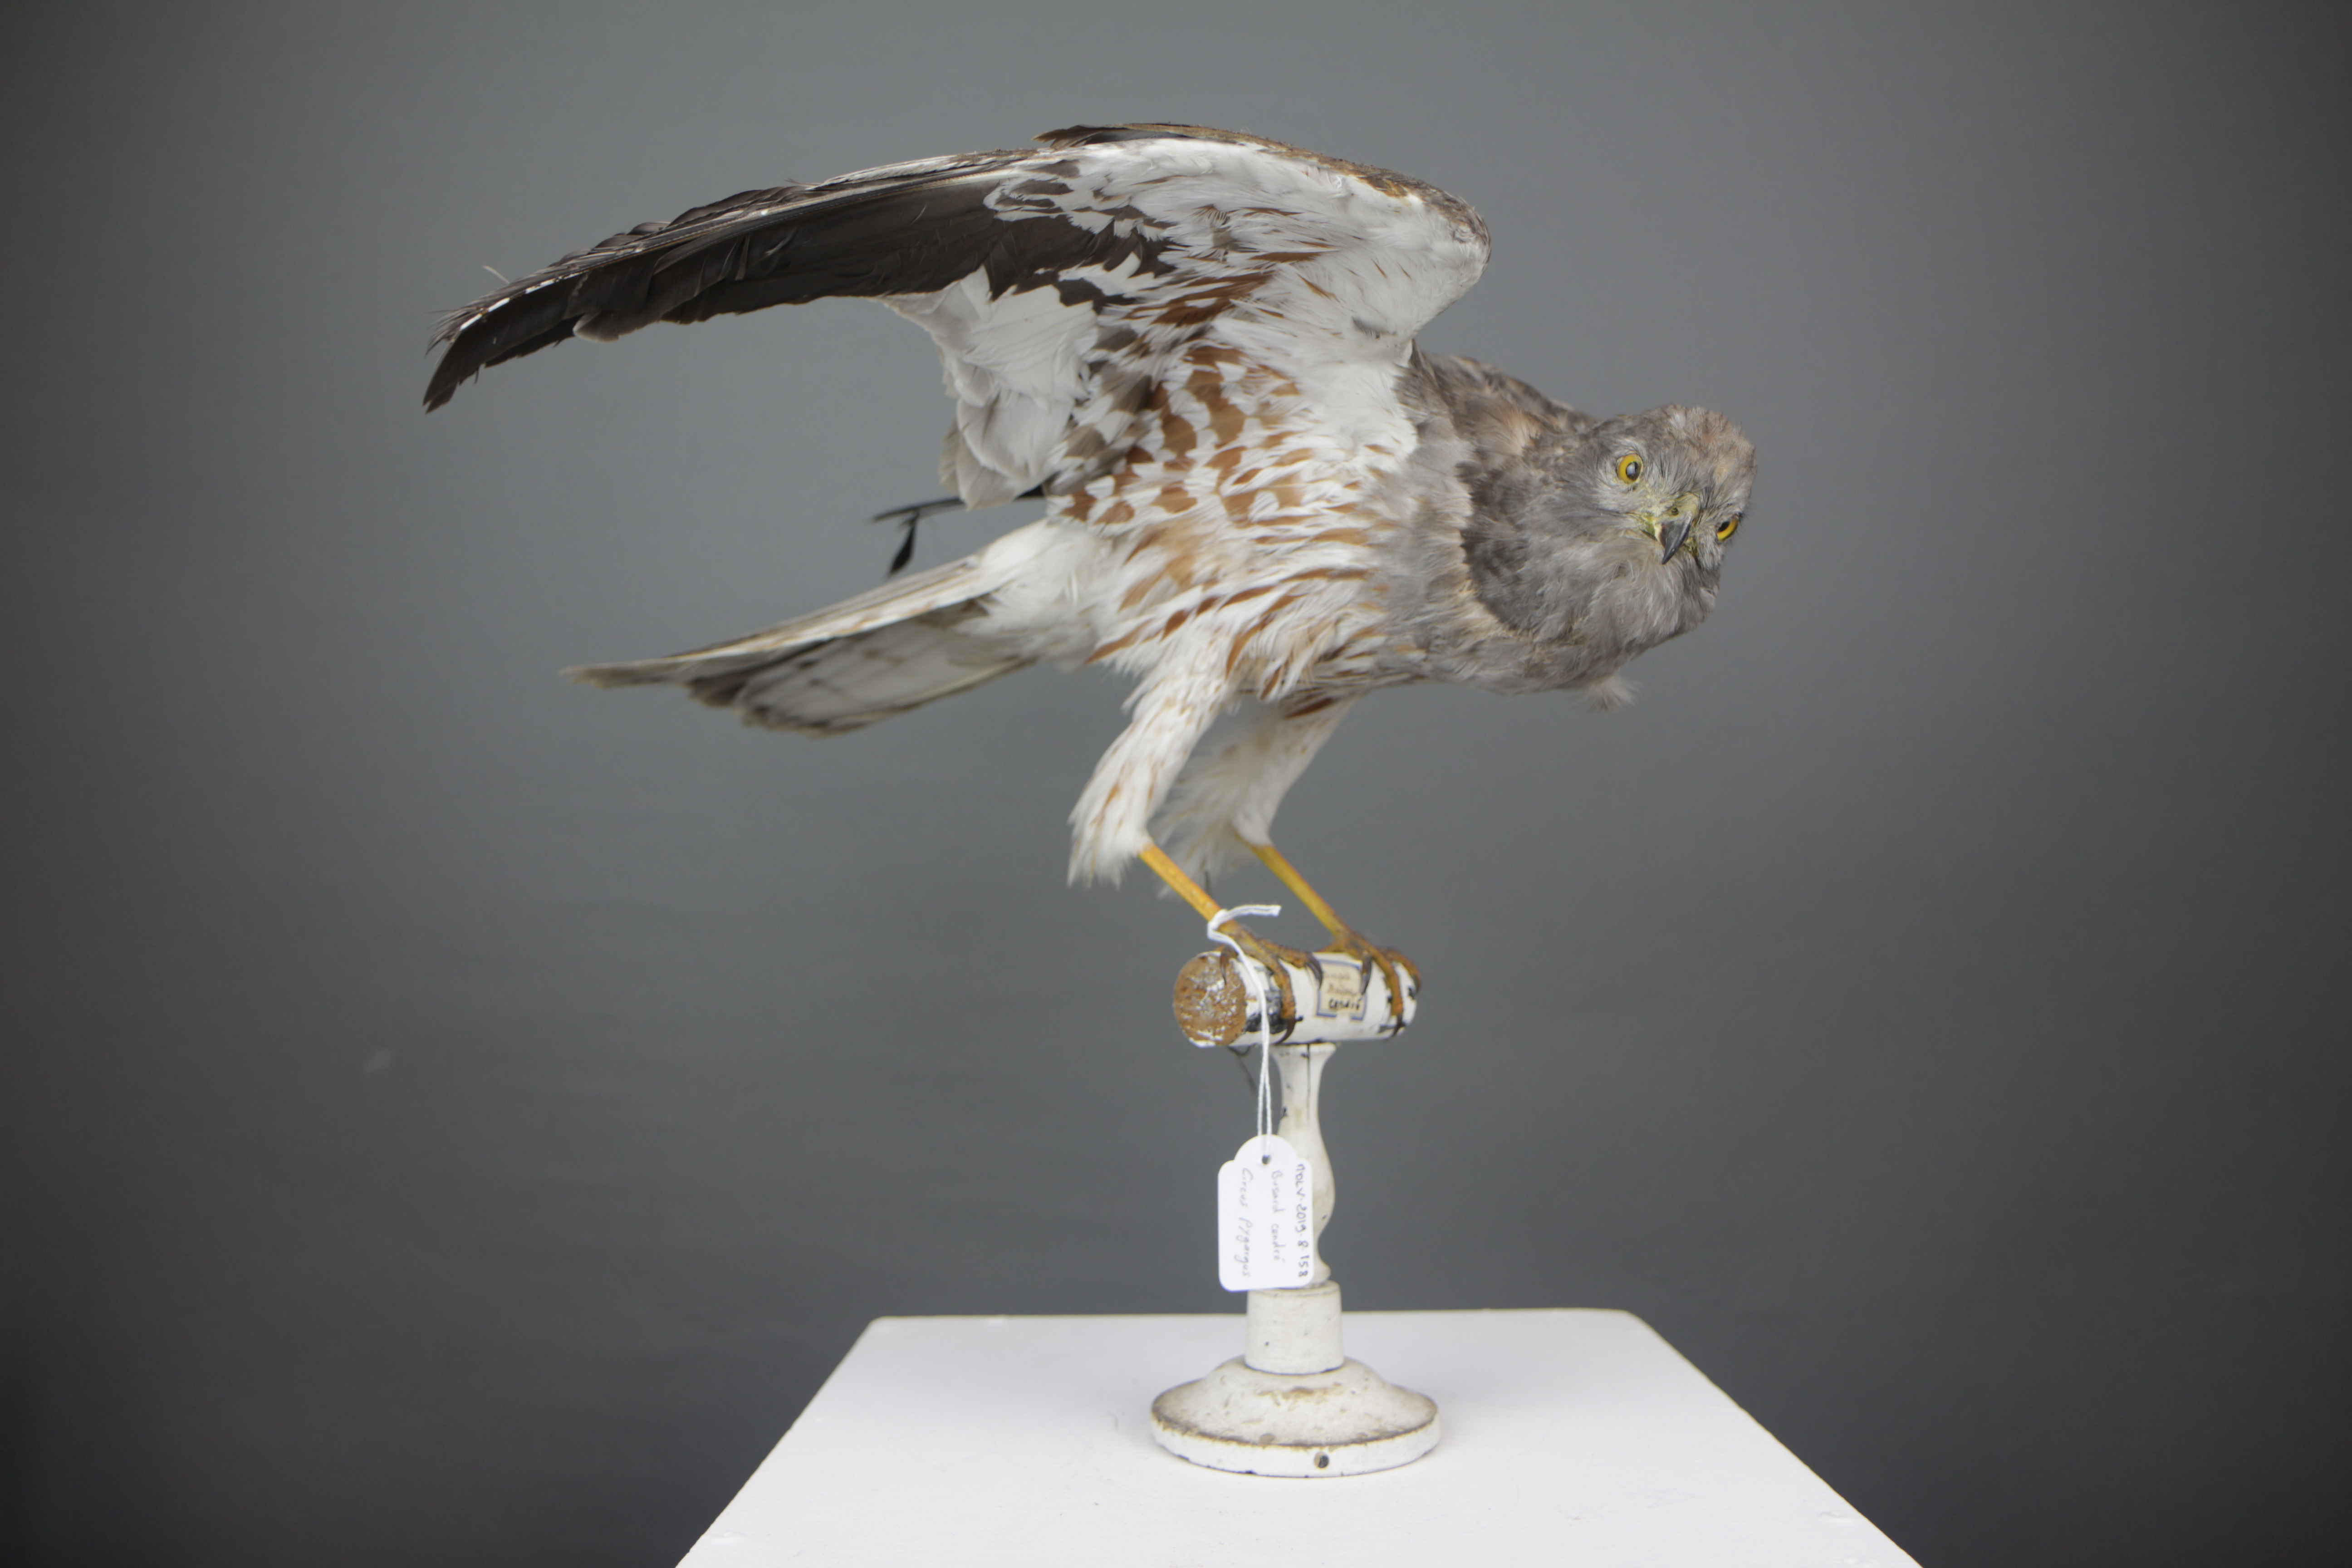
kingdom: Animalia
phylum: Chordata
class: Aves
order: Accipitriformes
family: Accipitridae
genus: Circus
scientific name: Circus pygargus
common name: Montagu's harrier
